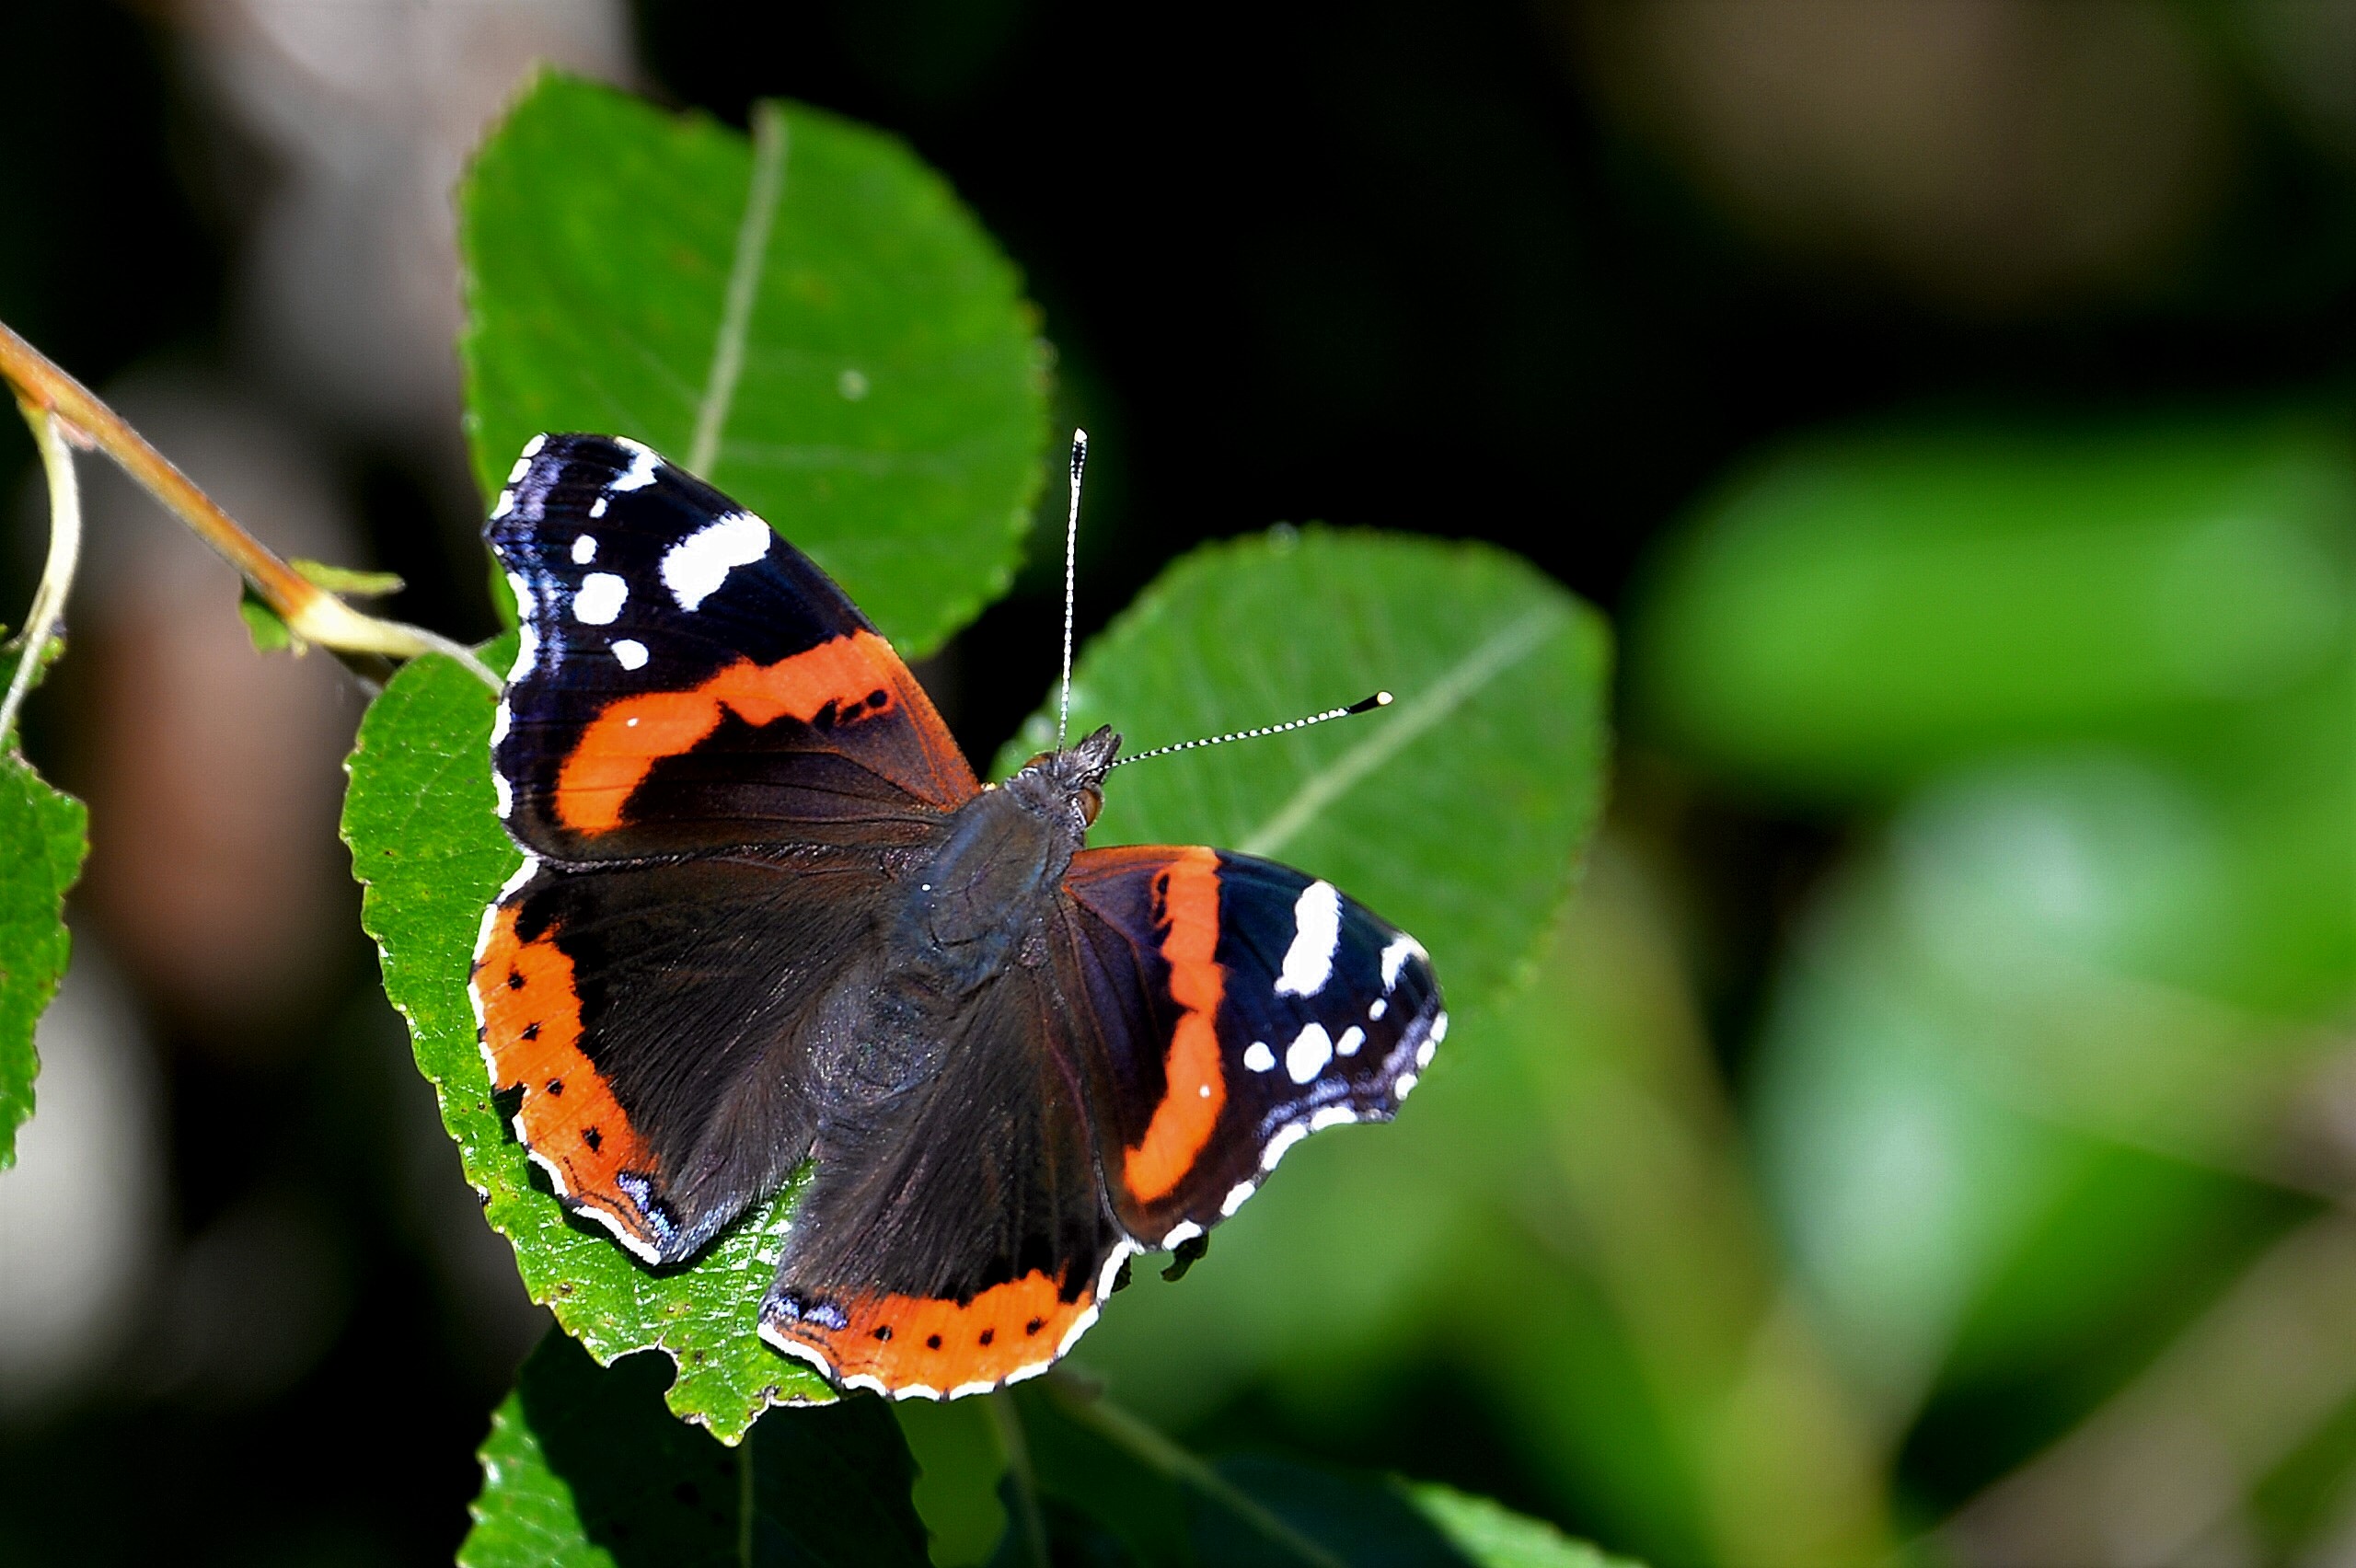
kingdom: Animalia
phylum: Arthropoda
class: Insecta
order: Lepidoptera
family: Nymphalidae
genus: Vanessa
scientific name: Vanessa atalanta
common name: Red admiral
